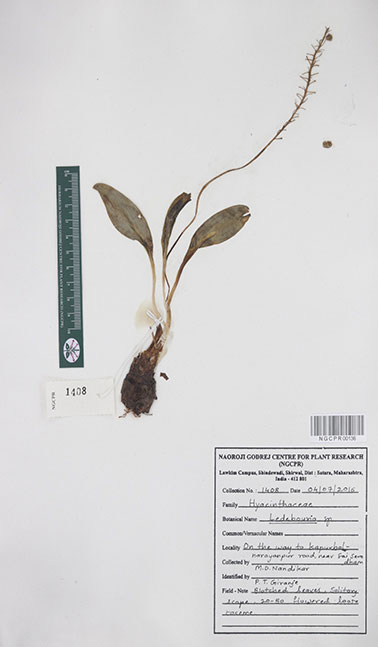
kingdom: Plantae
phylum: Tracheophyta
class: Liliopsida
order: Asparagales
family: Asparagaceae
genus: Ledebouria
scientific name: Ledebouria
